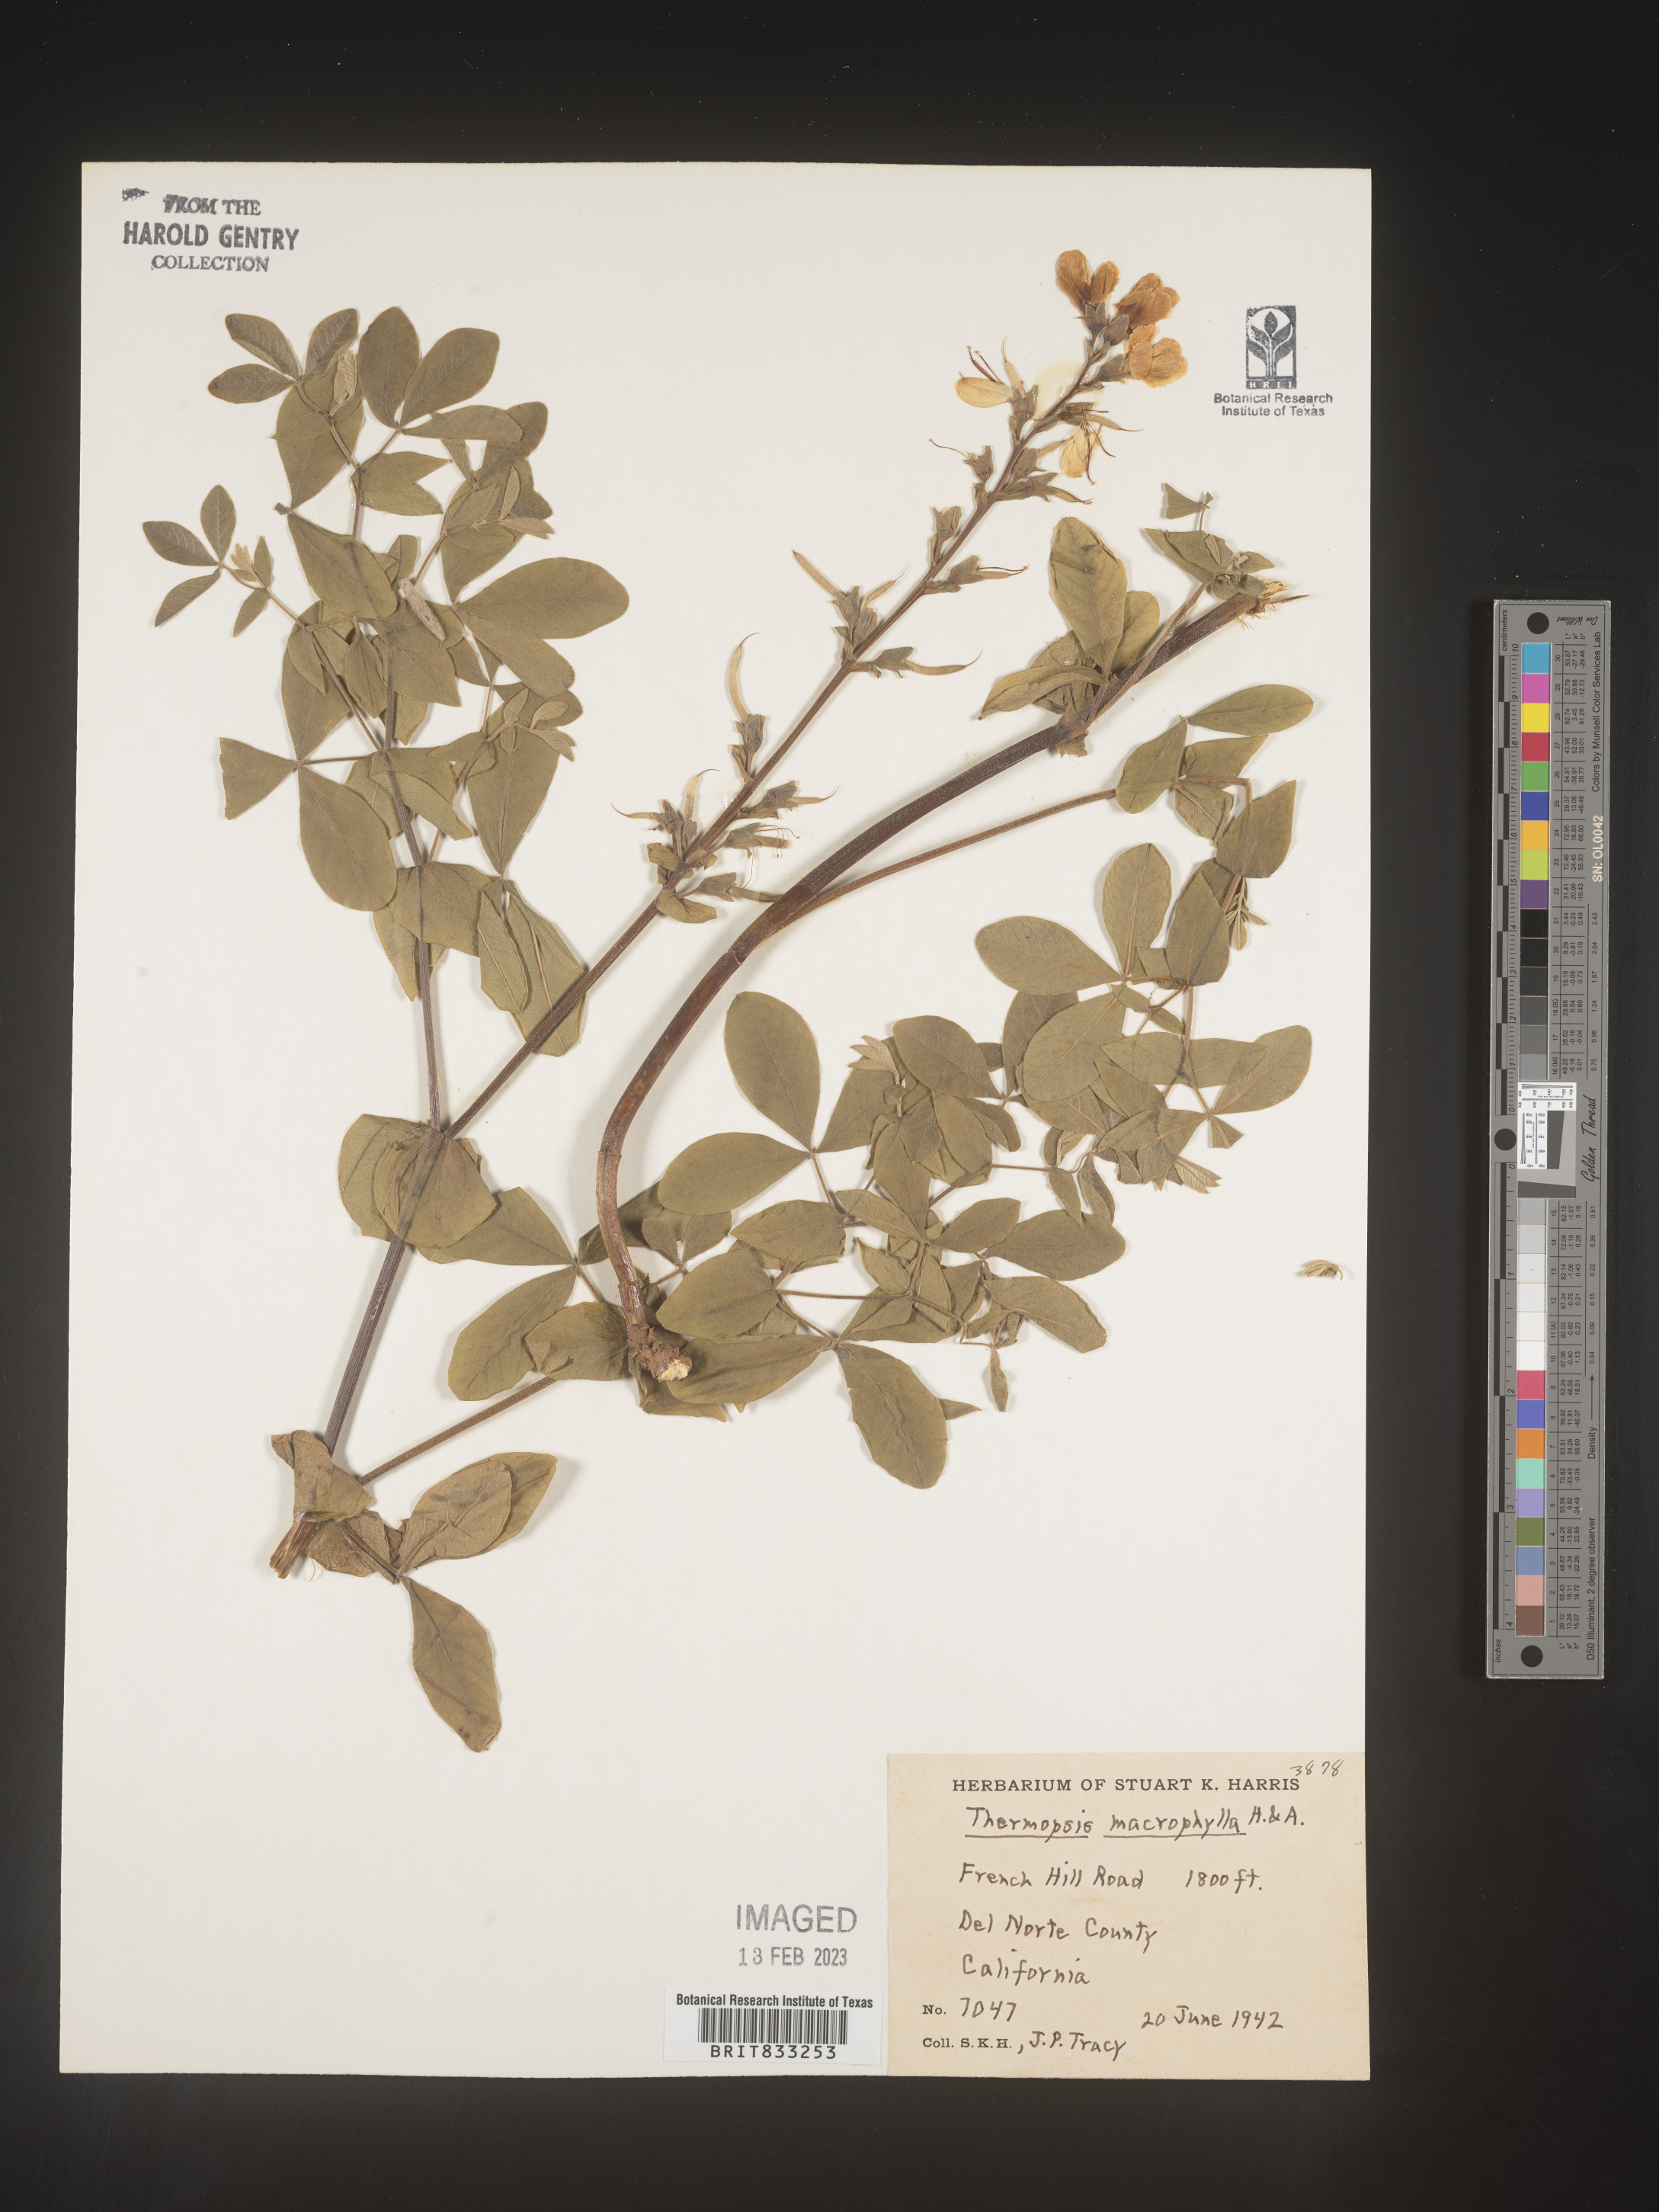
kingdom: Plantae
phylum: Tracheophyta
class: Magnoliopsida
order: Fabales
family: Fabaceae
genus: Thermopsis
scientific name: Thermopsis macrophylla
